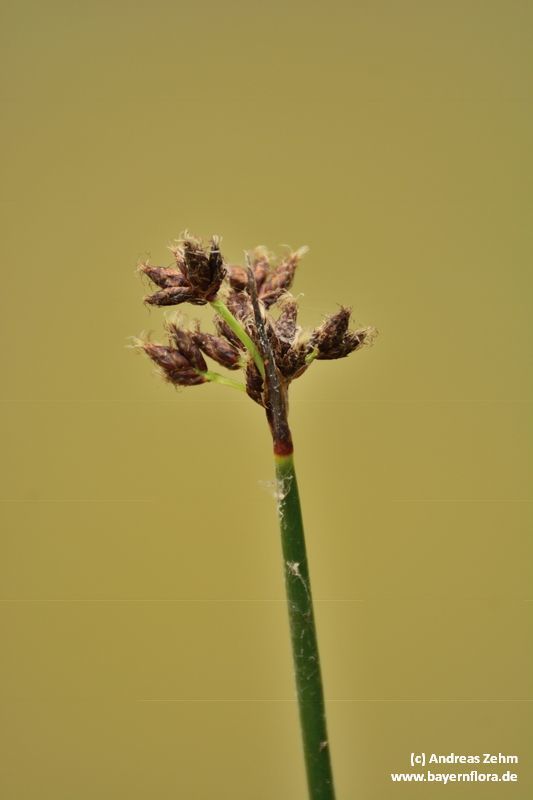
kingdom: Plantae
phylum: Tracheophyta
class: Liliopsida
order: Poales
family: Cyperaceae
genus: Schoenoplectus
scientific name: Schoenoplectus lacustris
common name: Common club-rush
